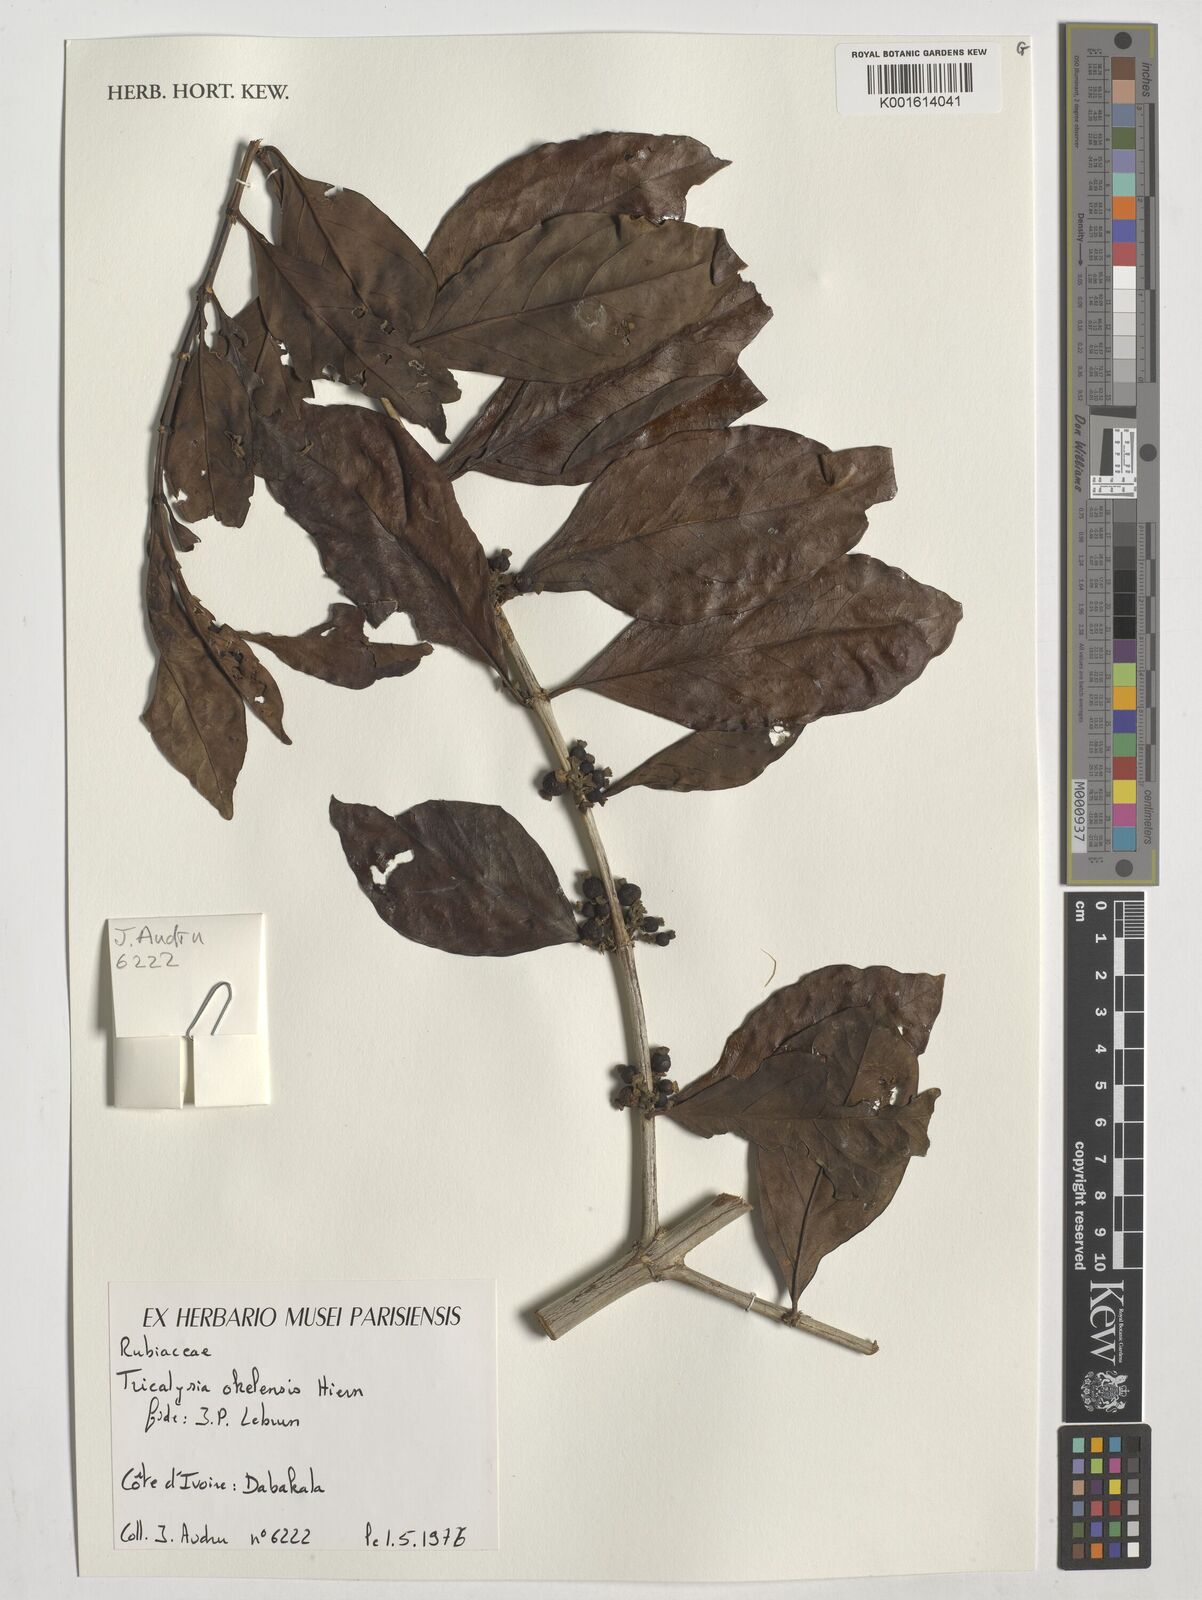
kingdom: Plantae
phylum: Tracheophyta
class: Magnoliopsida
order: Gentianales
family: Rubiaceae
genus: Tricalysia
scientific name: Tricalysia okelensis
